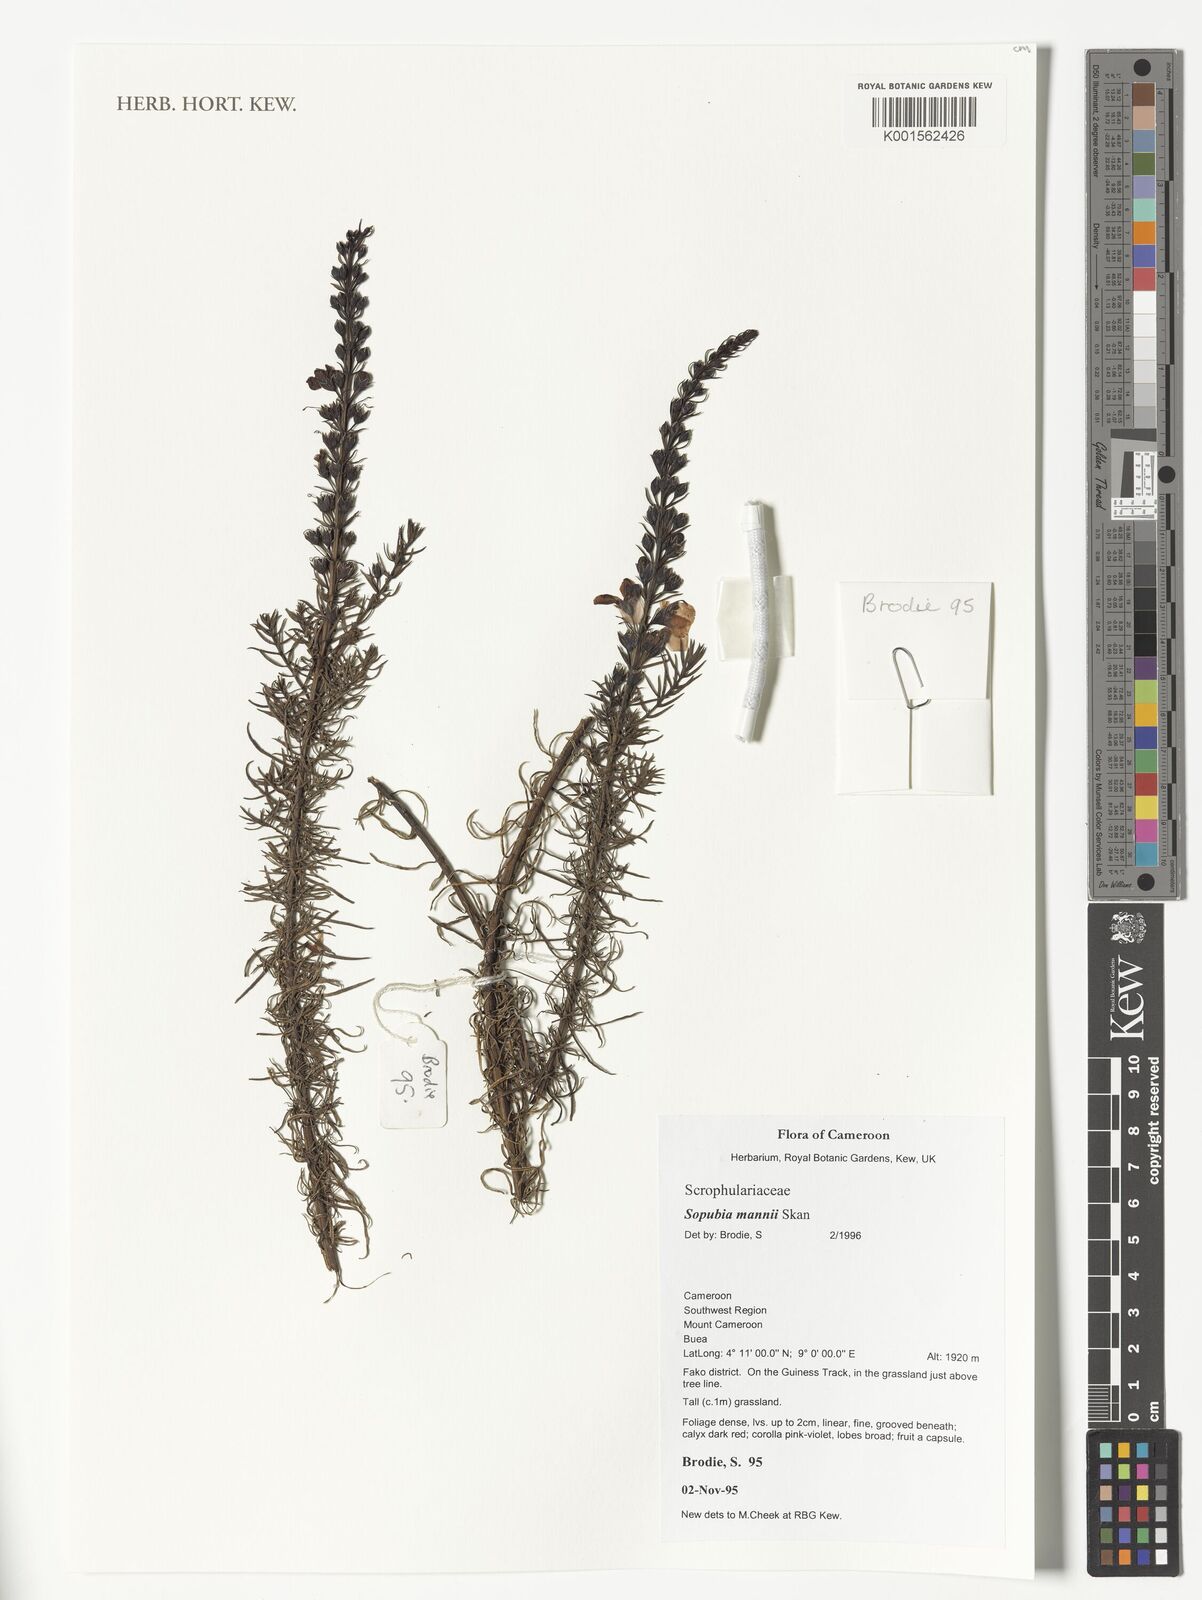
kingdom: Plantae
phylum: Tracheophyta
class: Magnoliopsida
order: Lamiales
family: Orobanchaceae
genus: Sopubia
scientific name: Sopubia mannii
